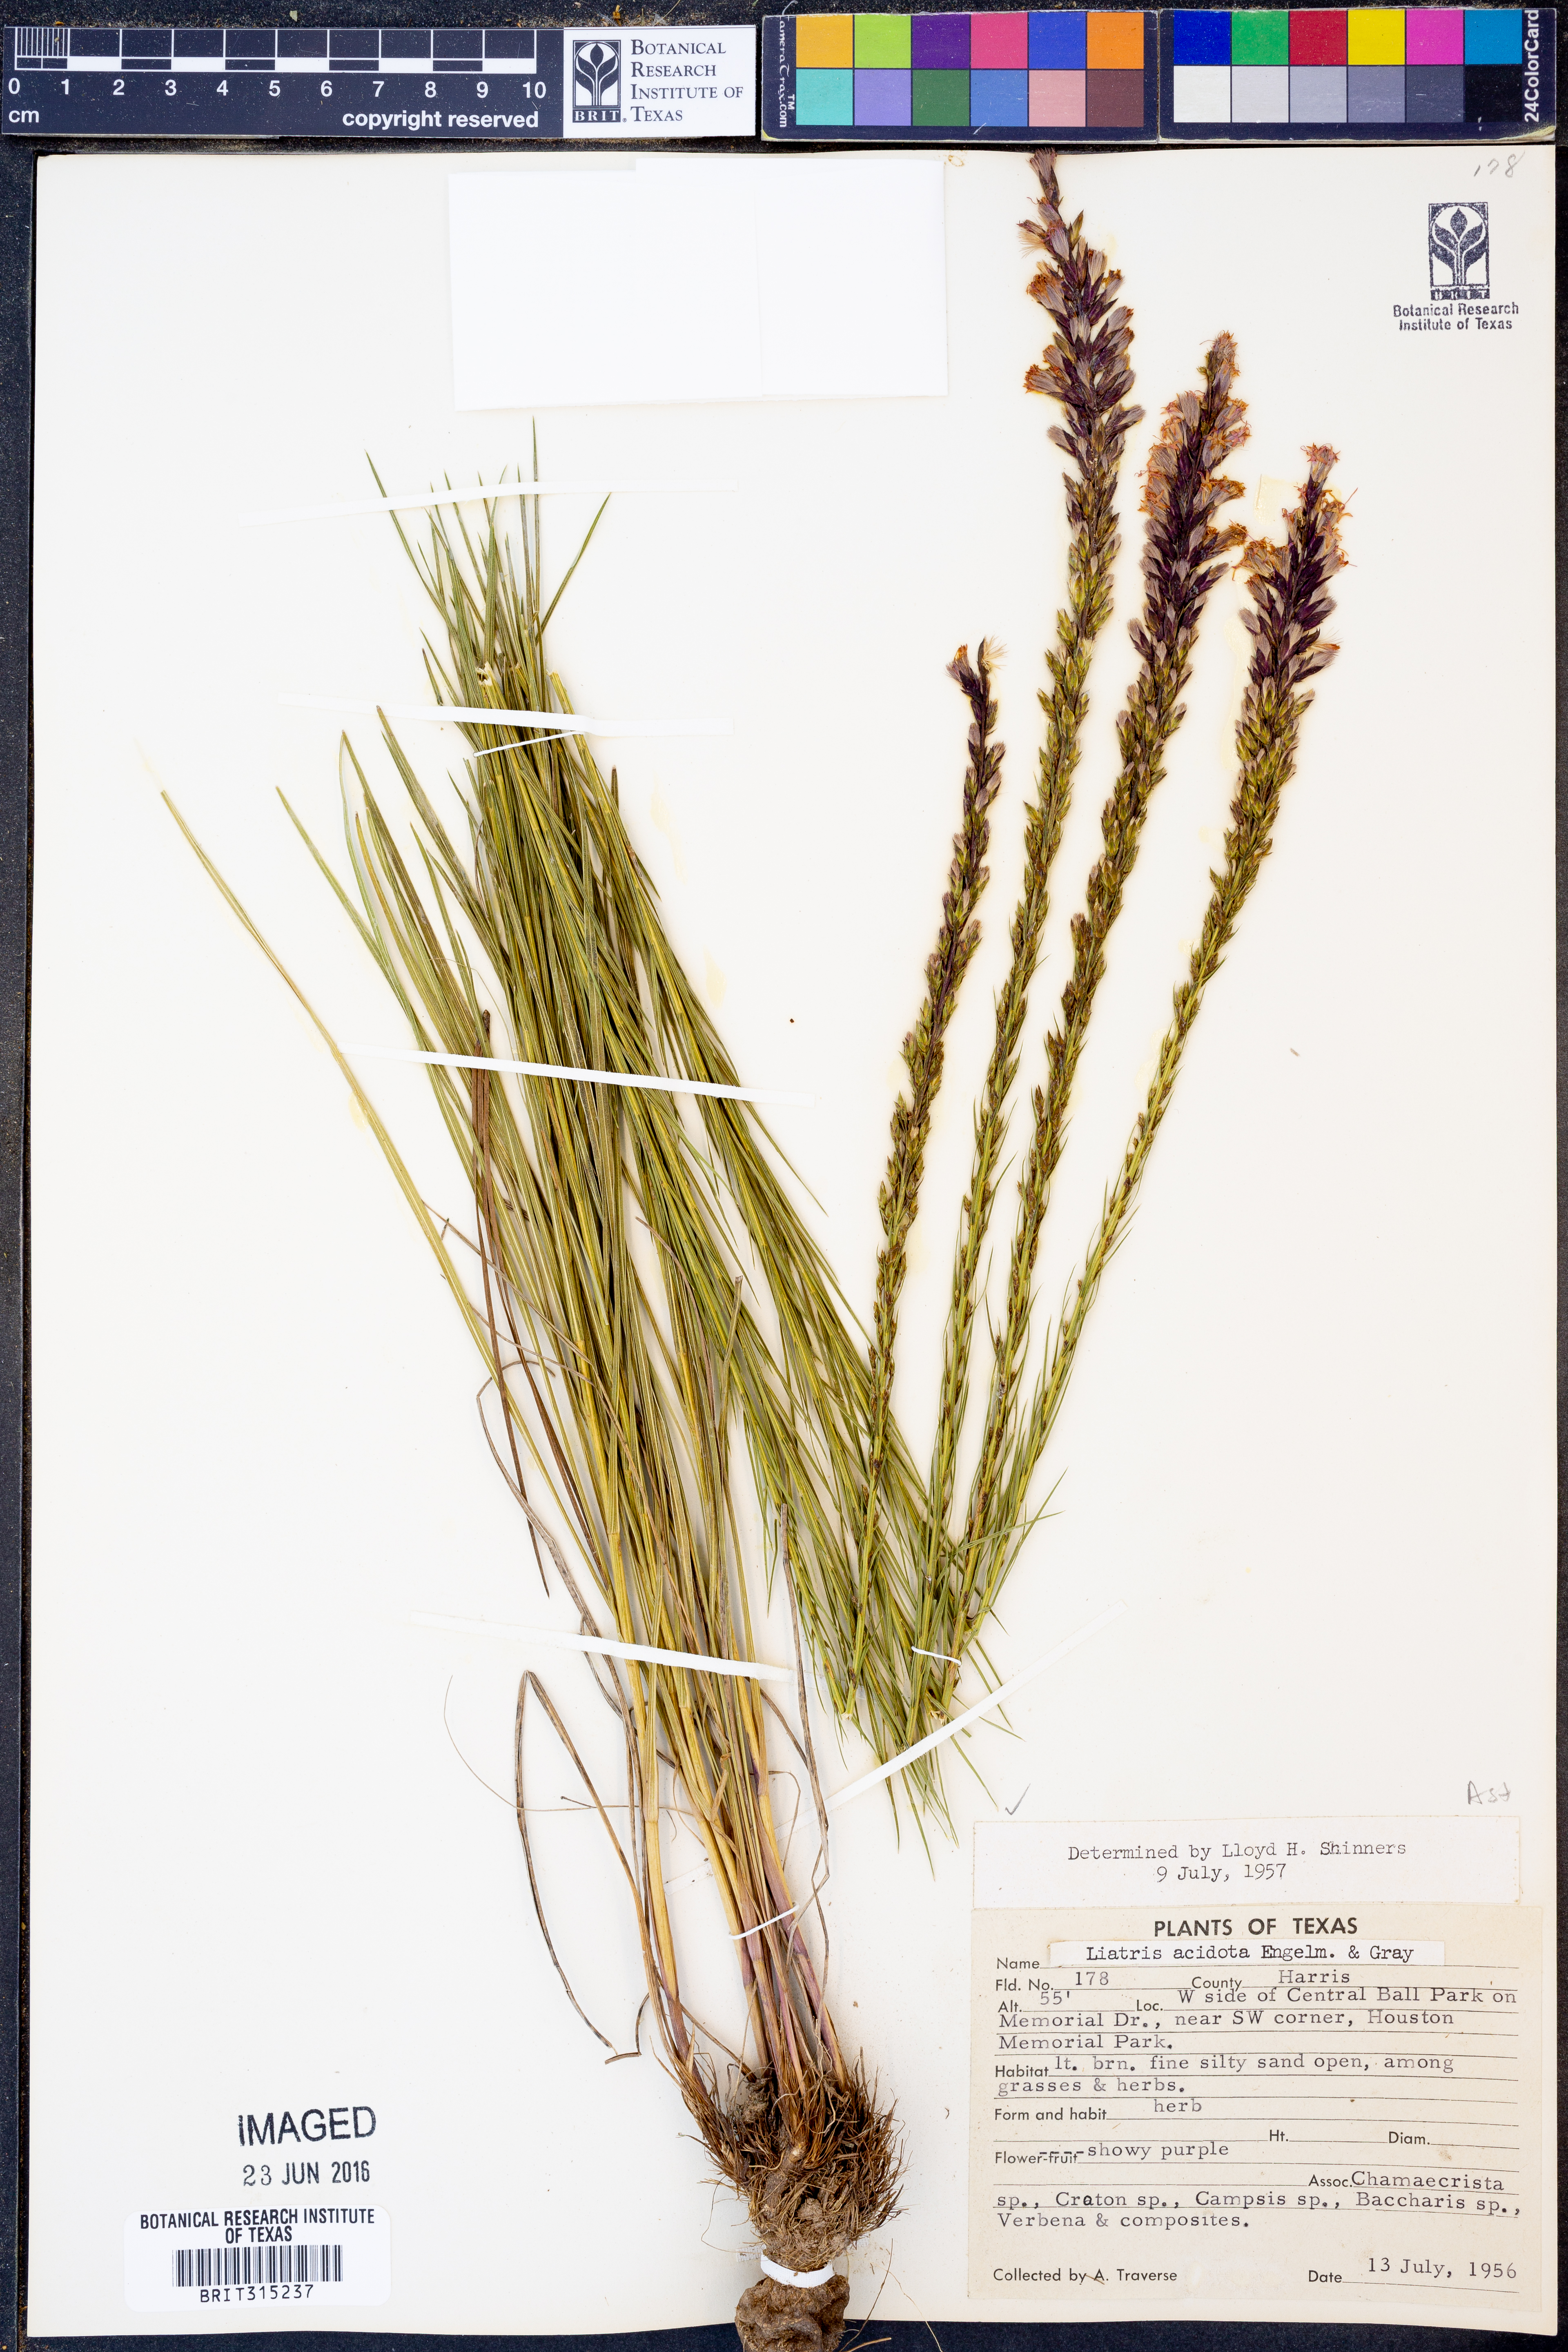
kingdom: Plantae
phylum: Tracheophyta
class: Magnoliopsida
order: Asterales
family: Asteraceae
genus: Liatris
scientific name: Liatris acidota
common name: Gulf coast gayfeather
